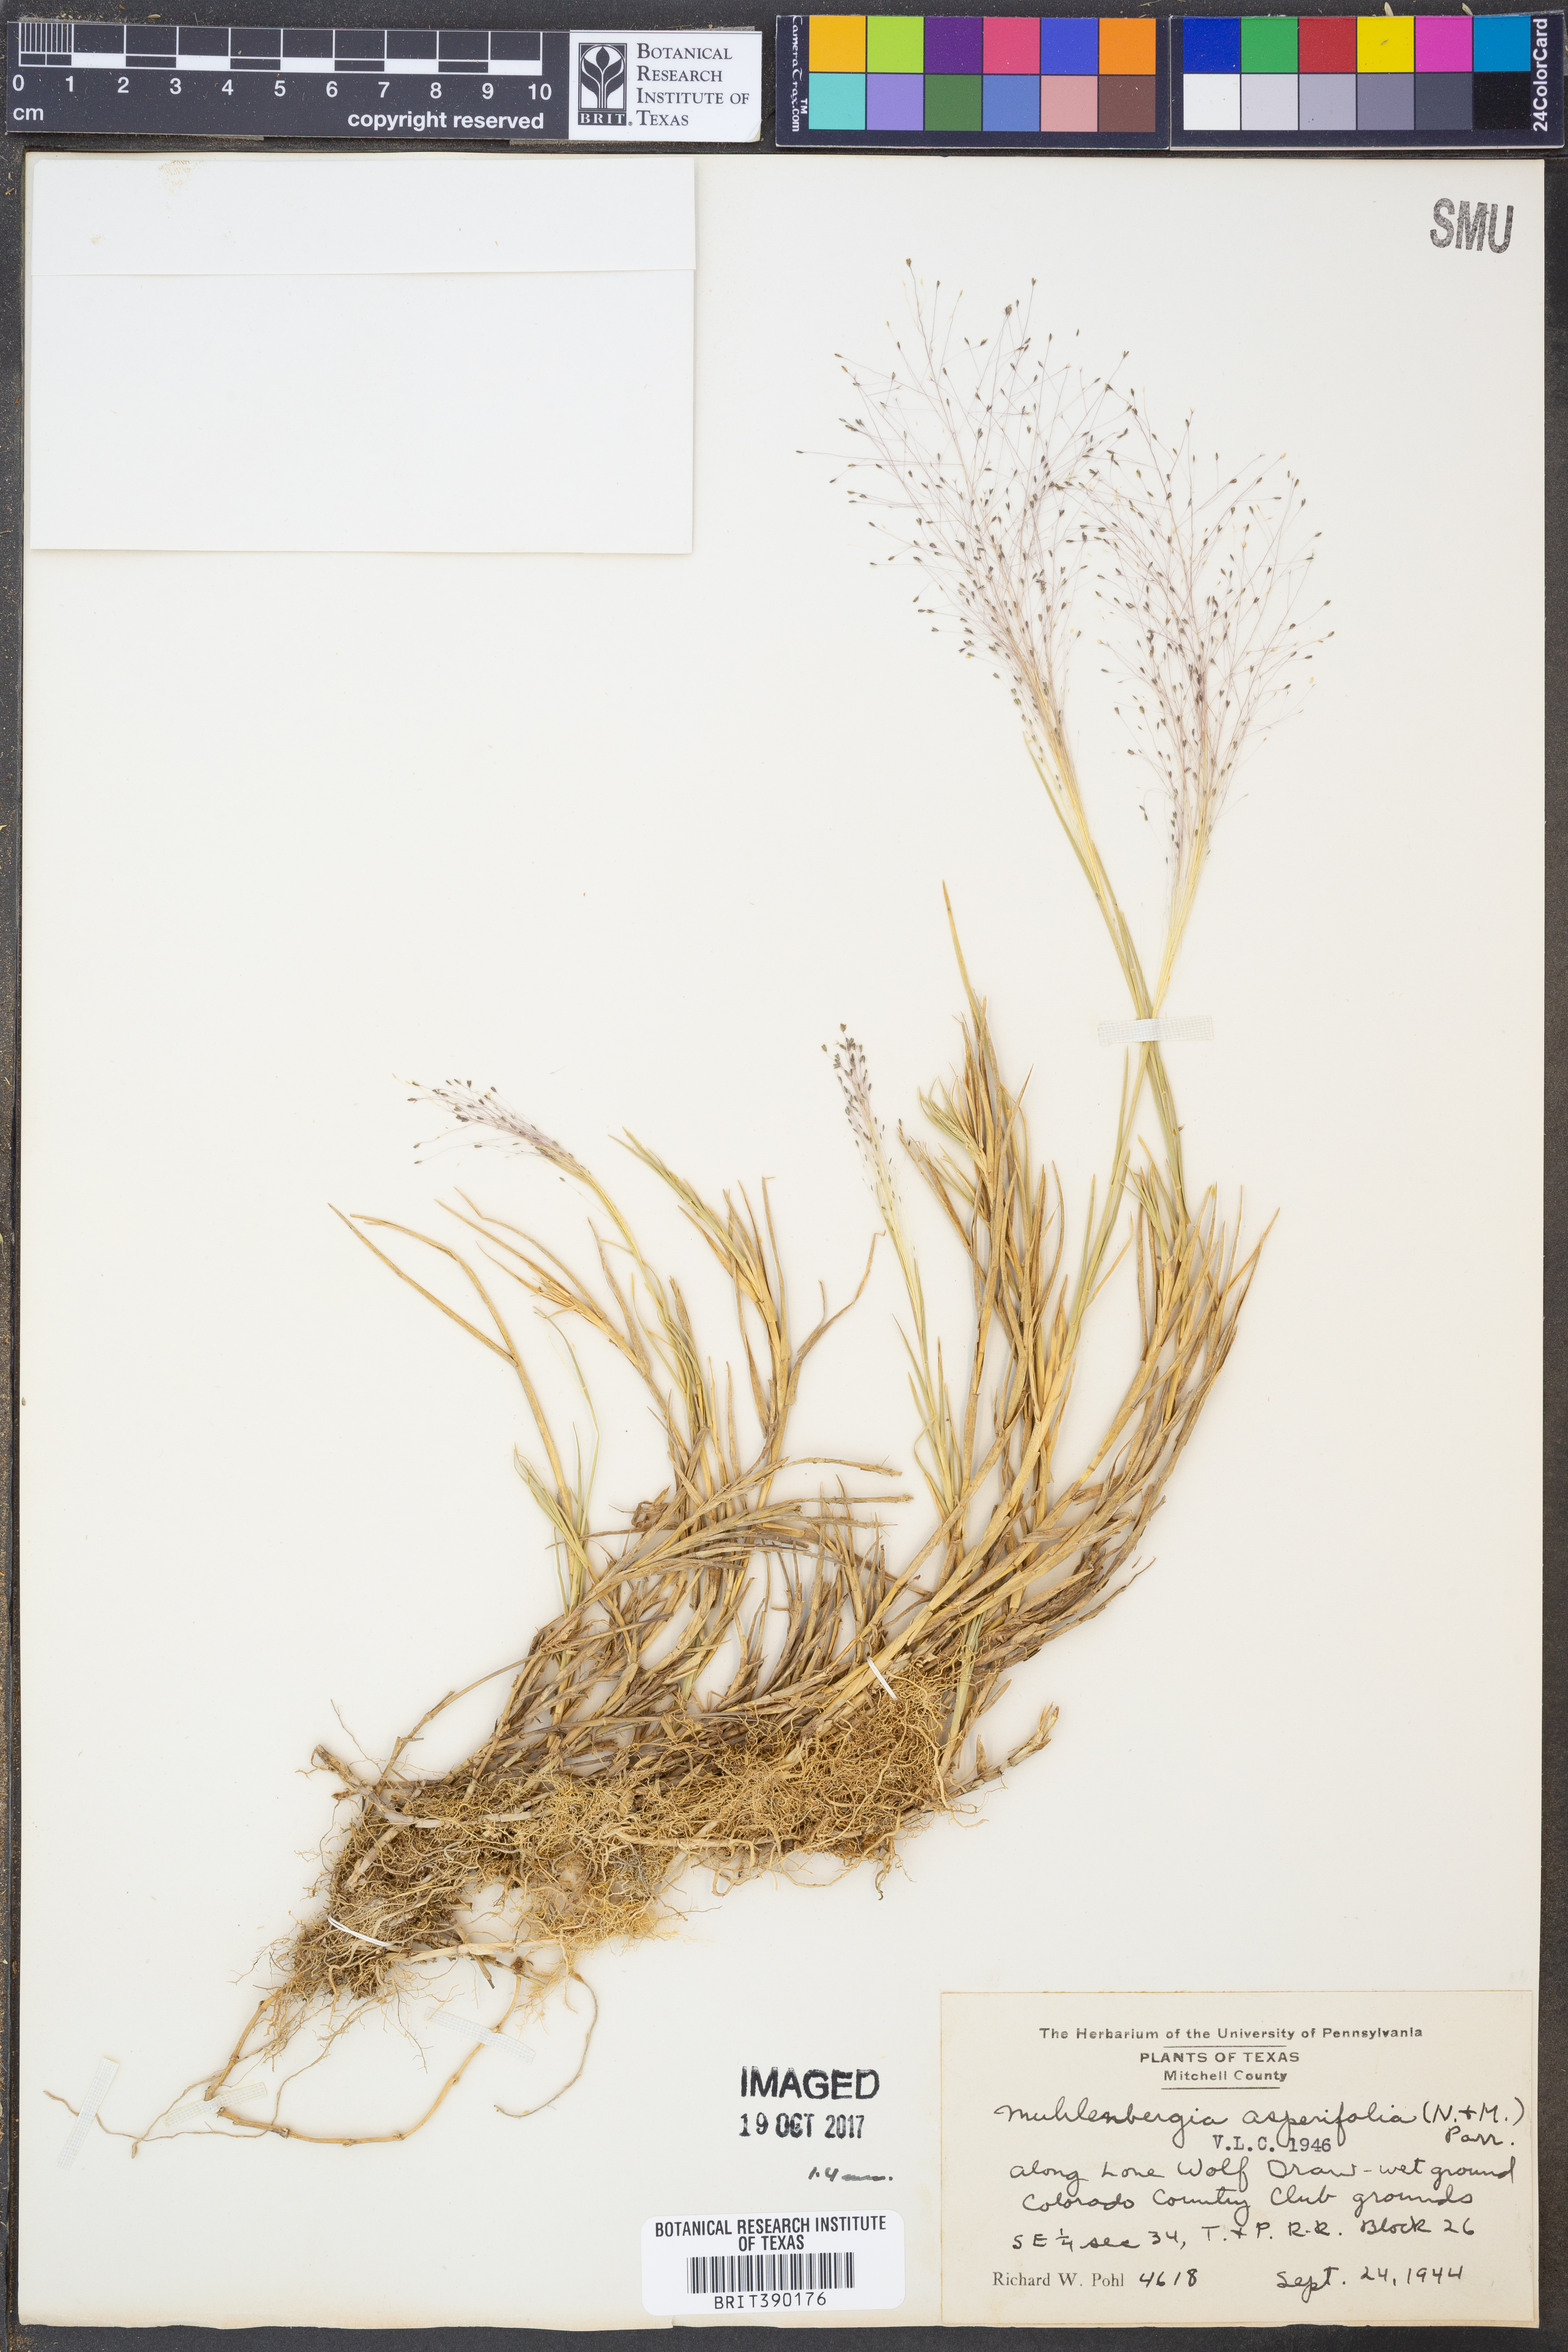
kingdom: Plantae
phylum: Tracheophyta
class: Liliopsida
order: Poales
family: Poaceae
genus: Muhlenbergia
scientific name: Muhlenbergia asperifolia
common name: Alkali muhly
